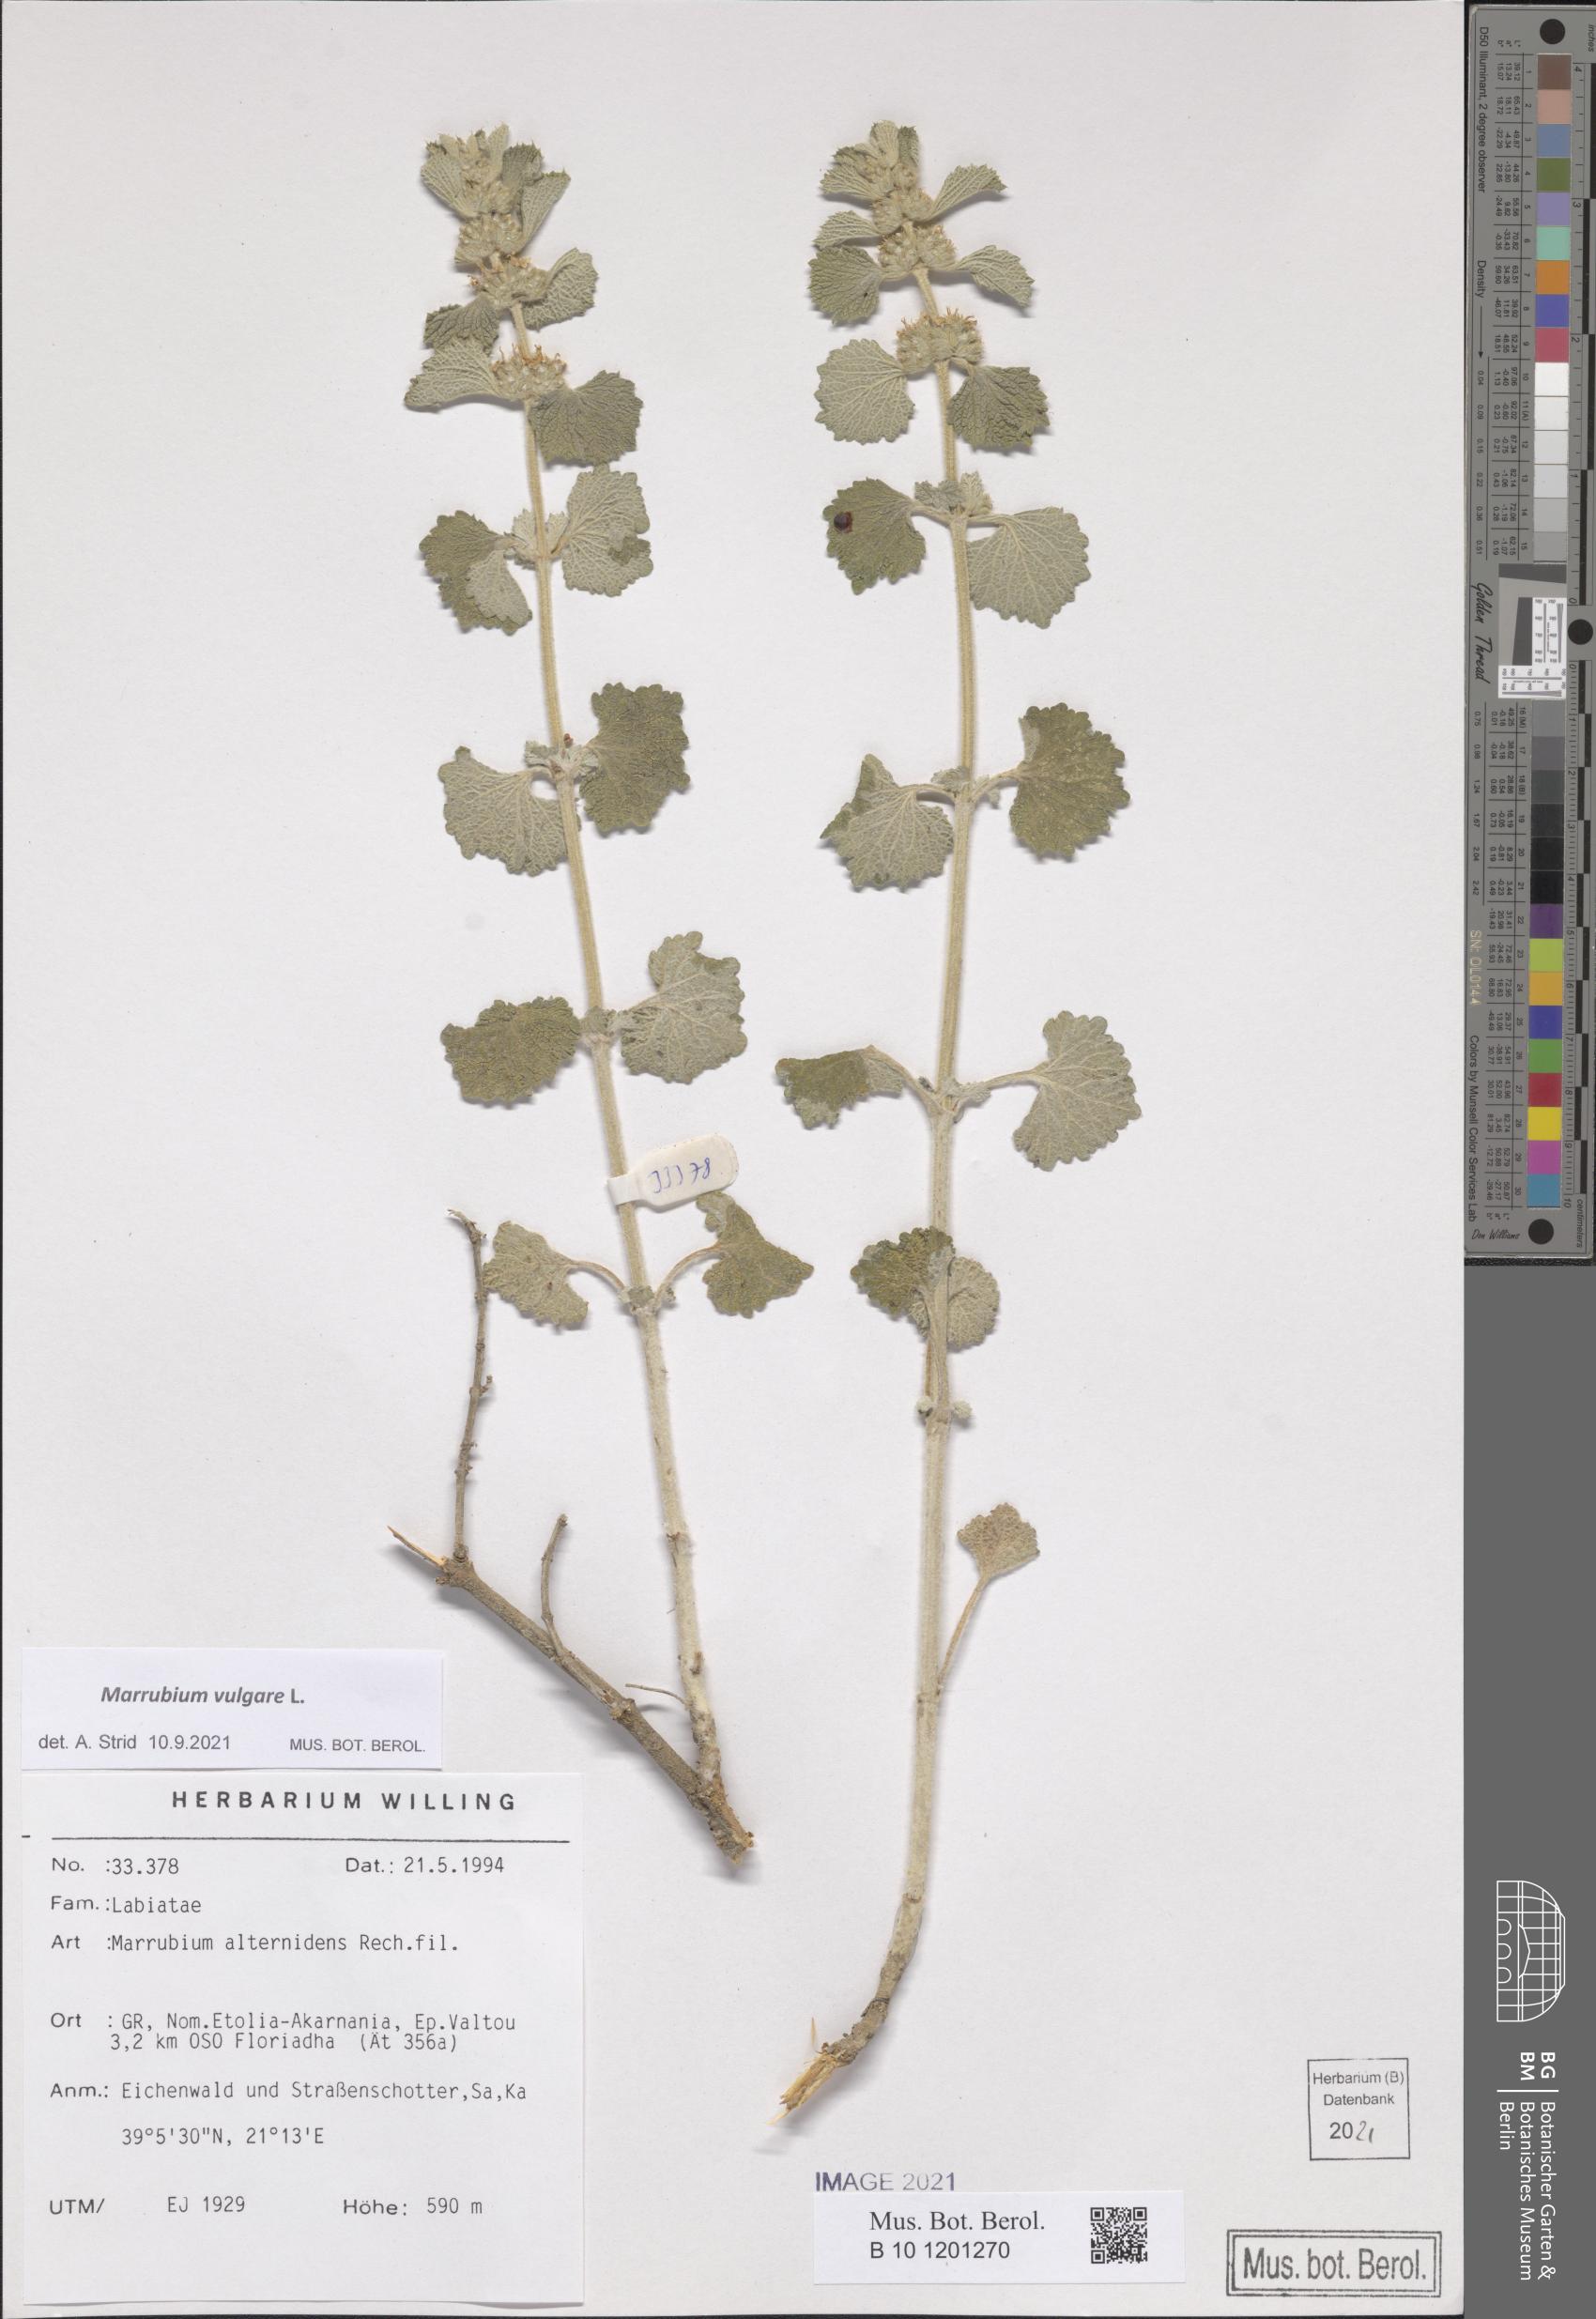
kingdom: Plantae
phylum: Tracheophyta
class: Magnoliopsida
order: Lamiales
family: Lamiaceae
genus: Marrubium
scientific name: Marrubium vulgare
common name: Horehound
